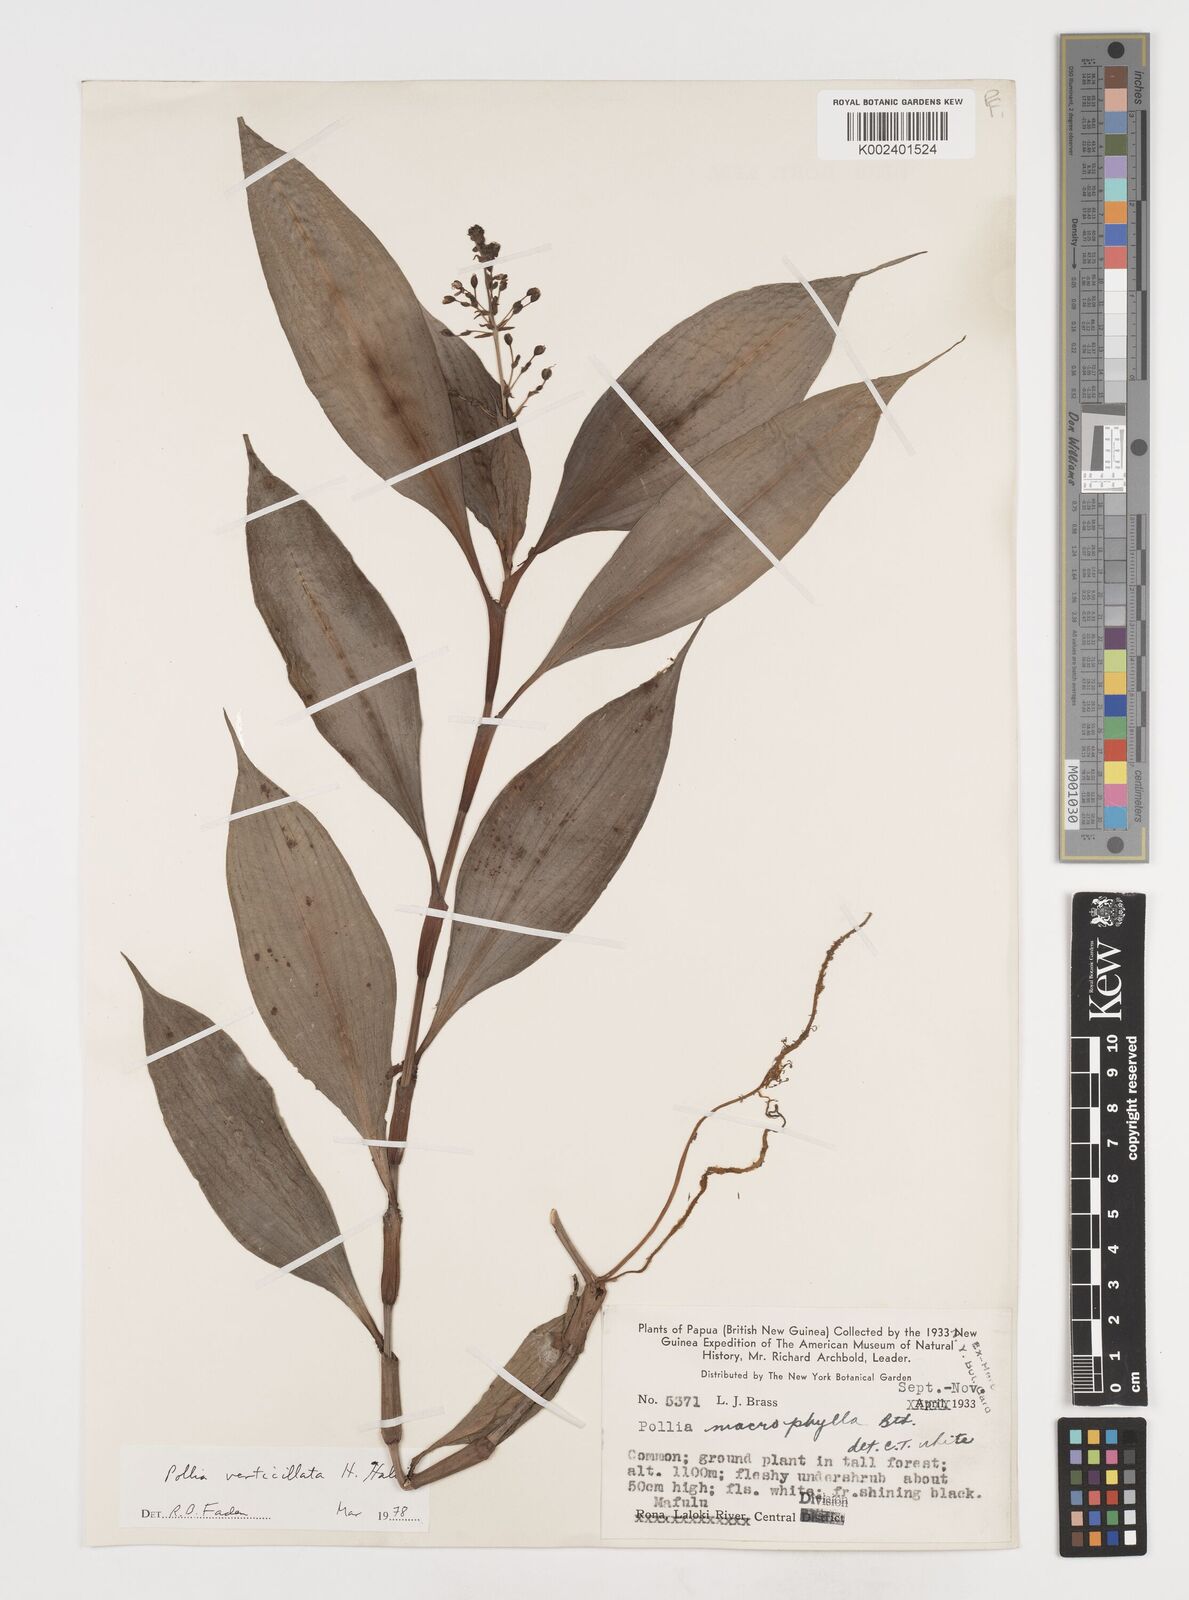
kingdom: Plantae
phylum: Tracheophyta
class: Liliopsida
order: Commelinales
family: Commelinaceae
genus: Pollia
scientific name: Pollia verticillata
